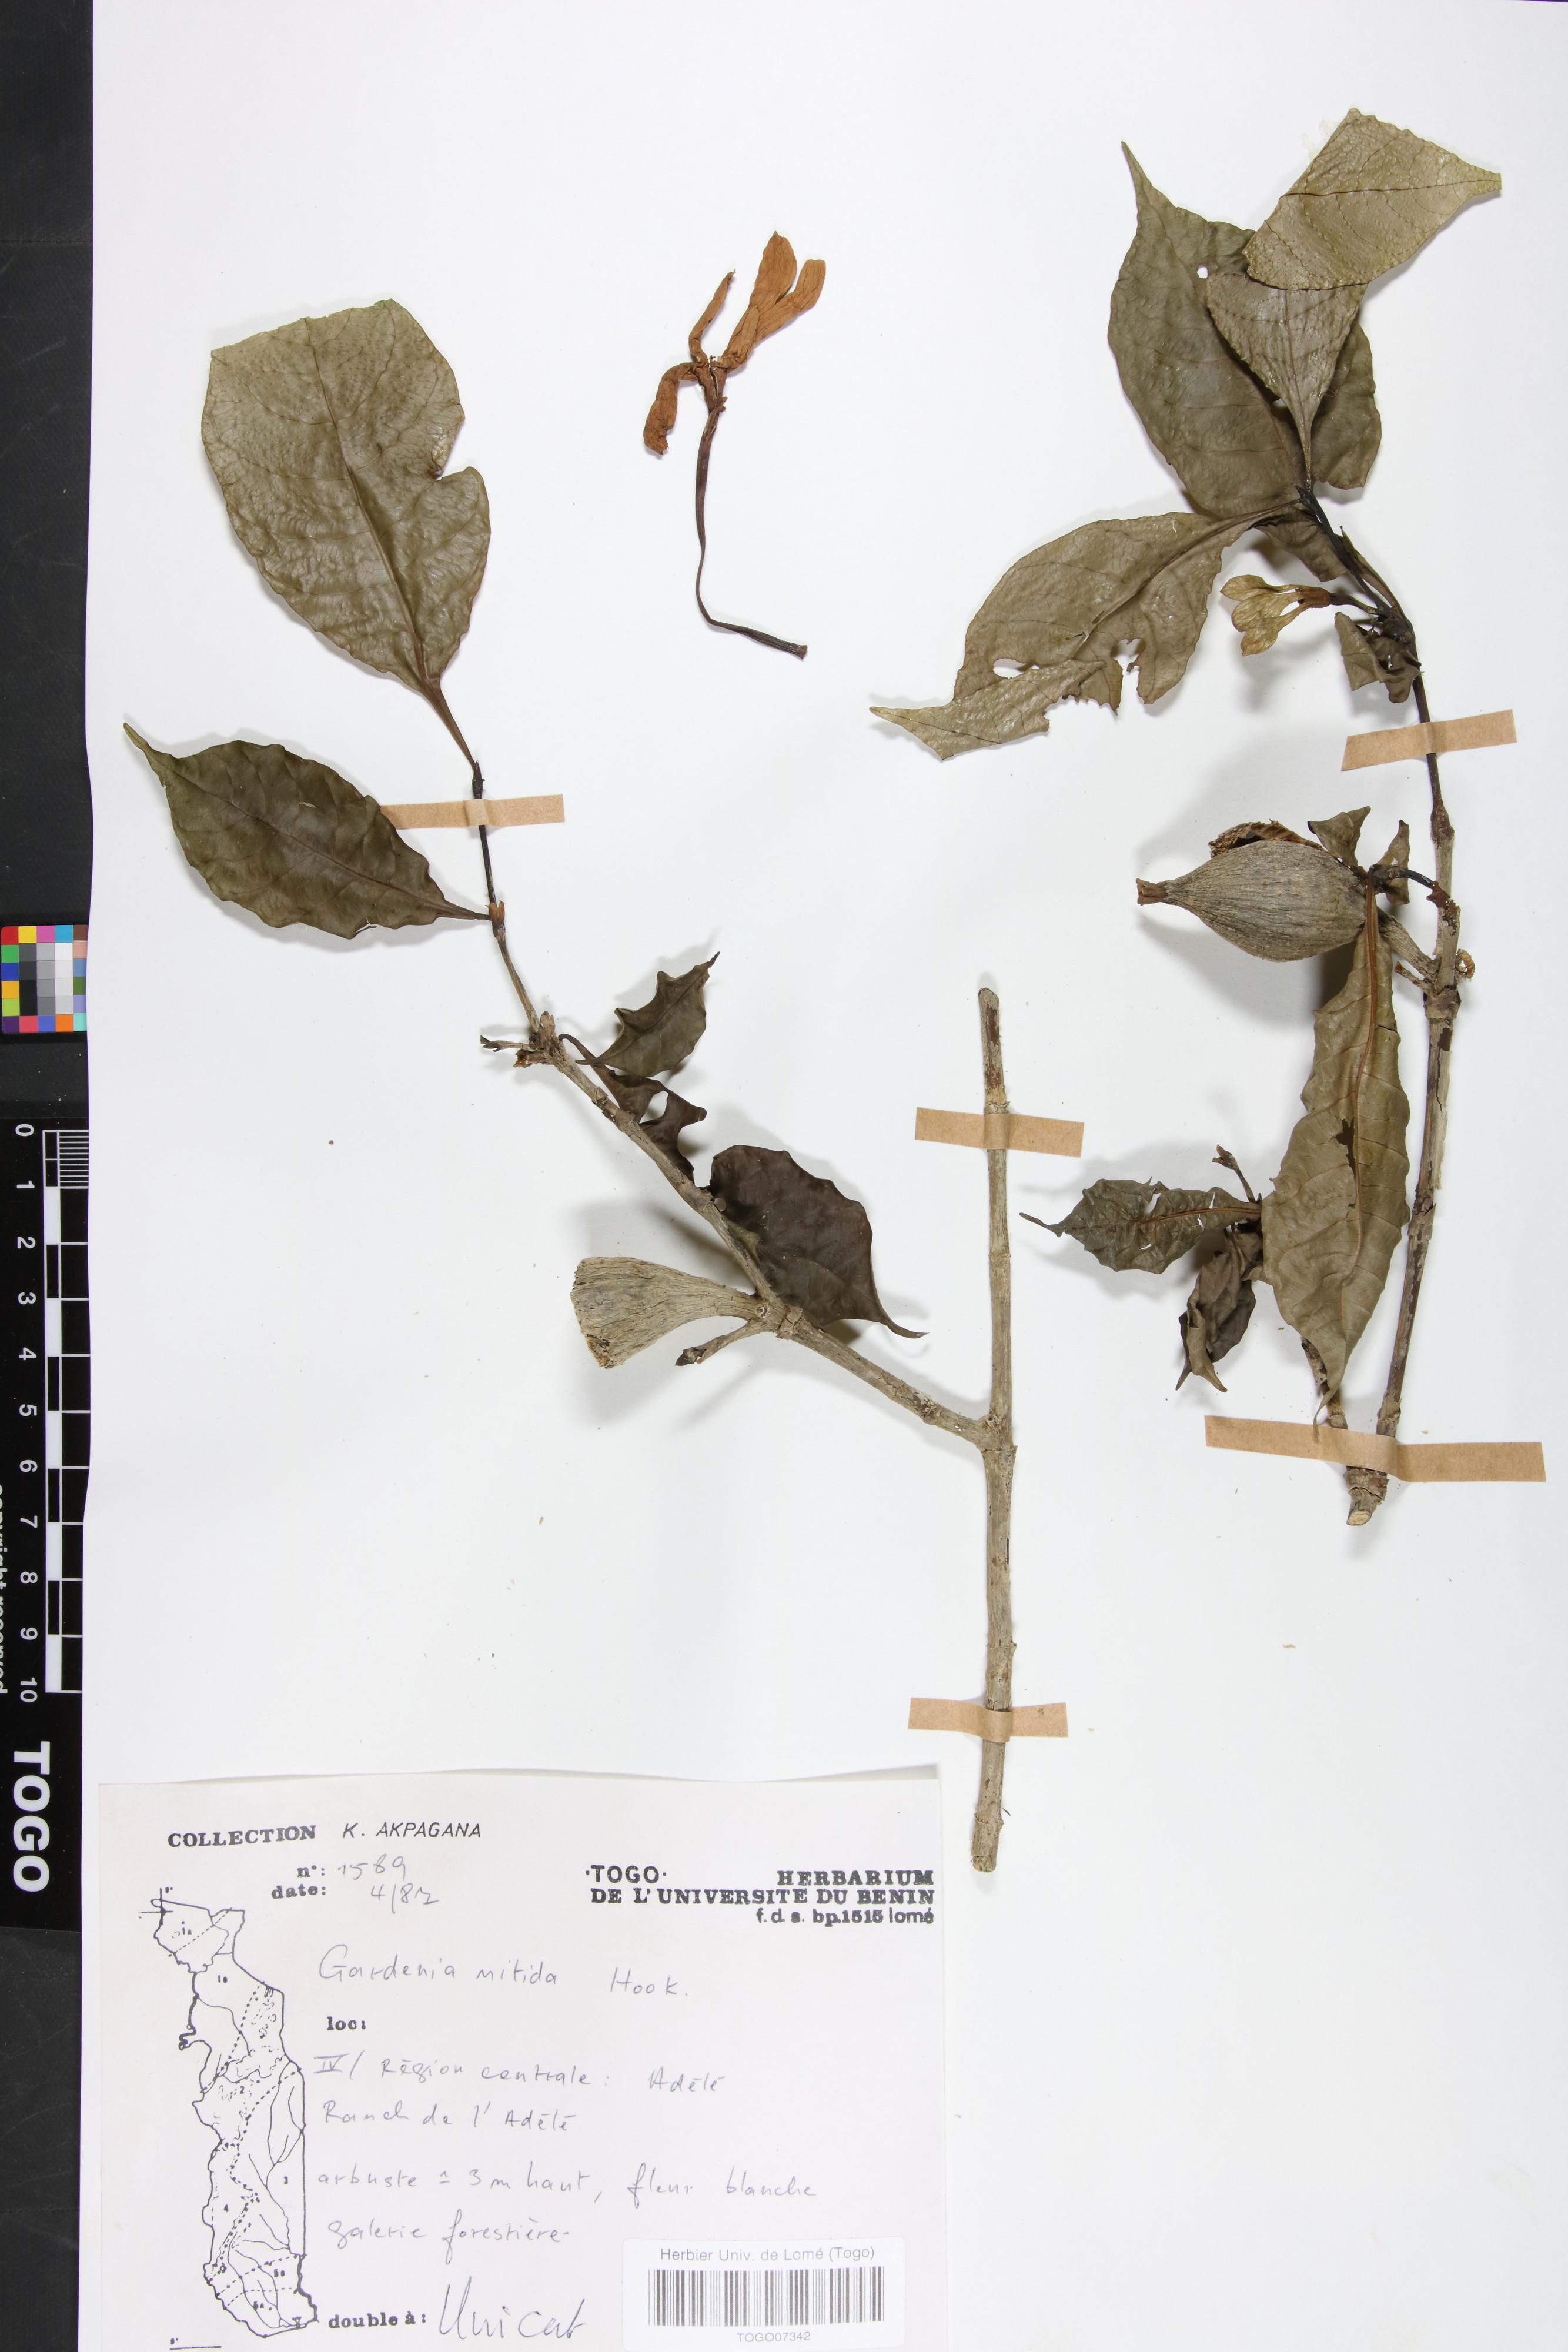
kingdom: Plantae
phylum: Tracheophyta
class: Magnoliopsida
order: Gentianales
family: Rubiaceae
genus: Gardenia
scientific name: Gardenia nitida
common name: Glossy-leaved gardenia
